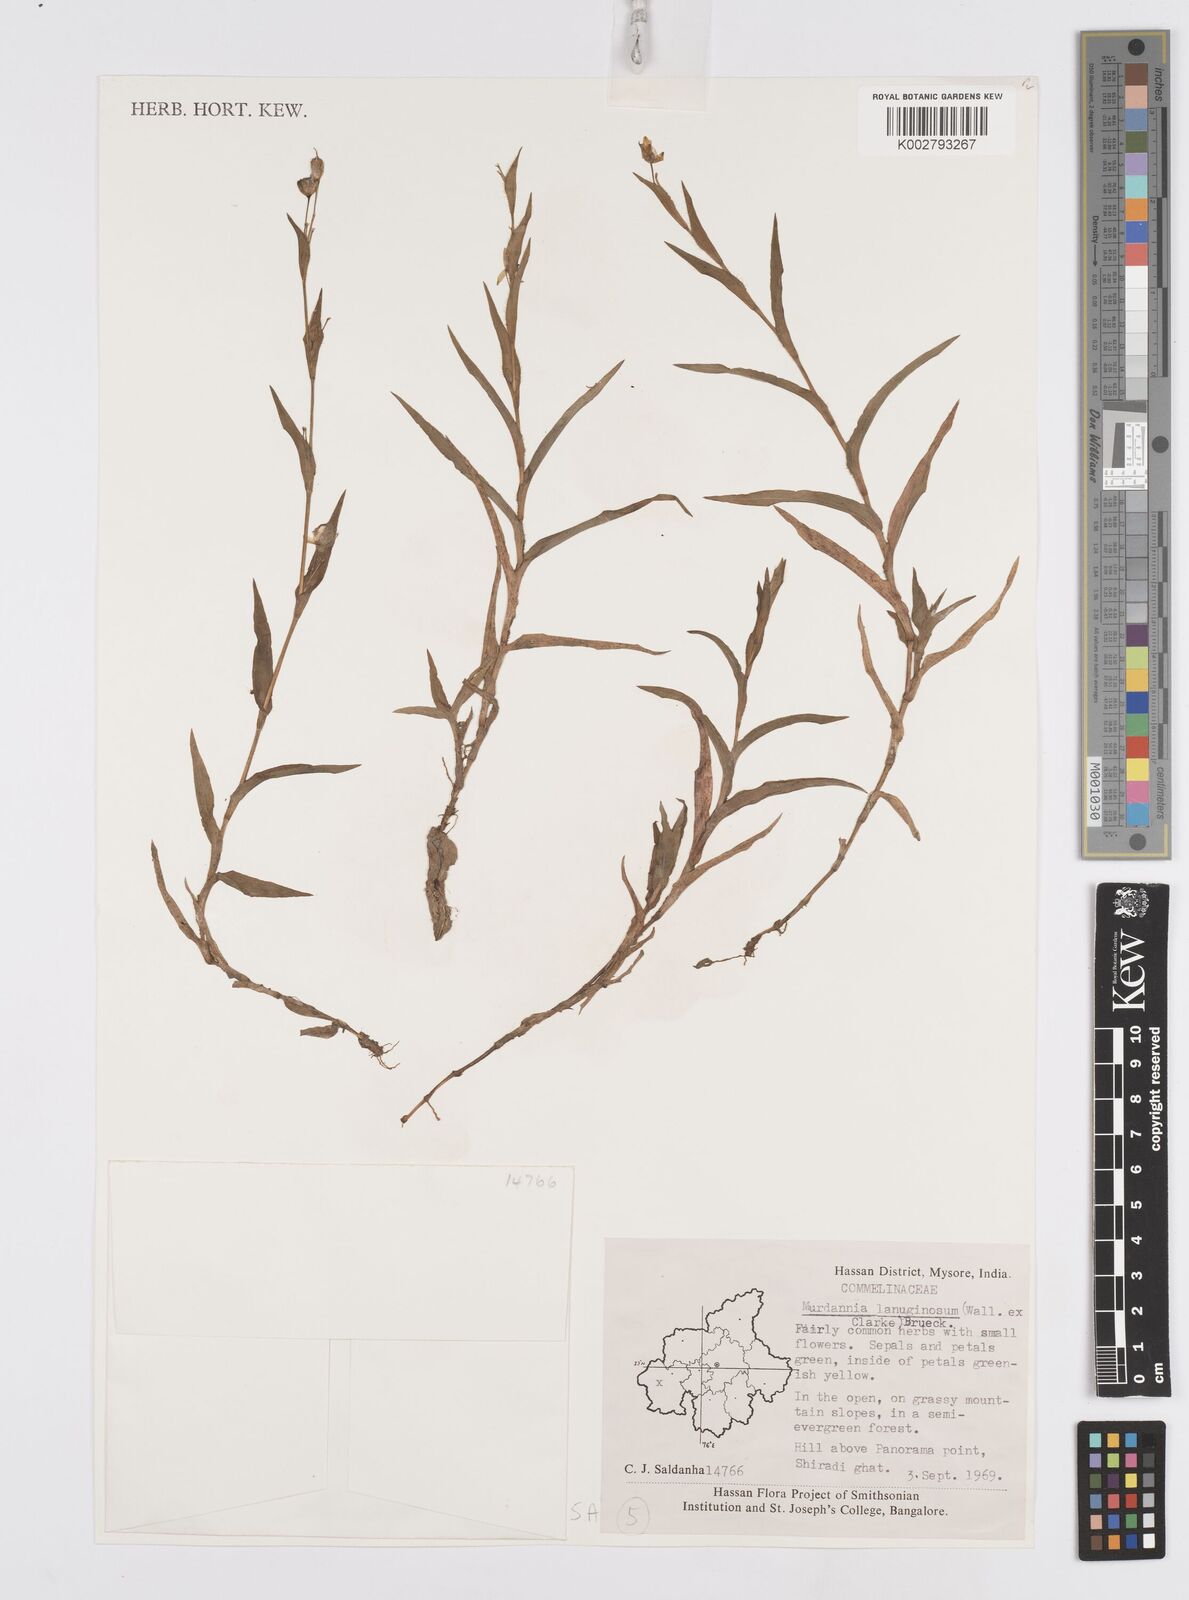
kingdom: Plantae
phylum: Tracheophyta
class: Liliopsida
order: Commelinales
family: Commelinaceae
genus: Murdannia
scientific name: Murdannia lanuginosa
